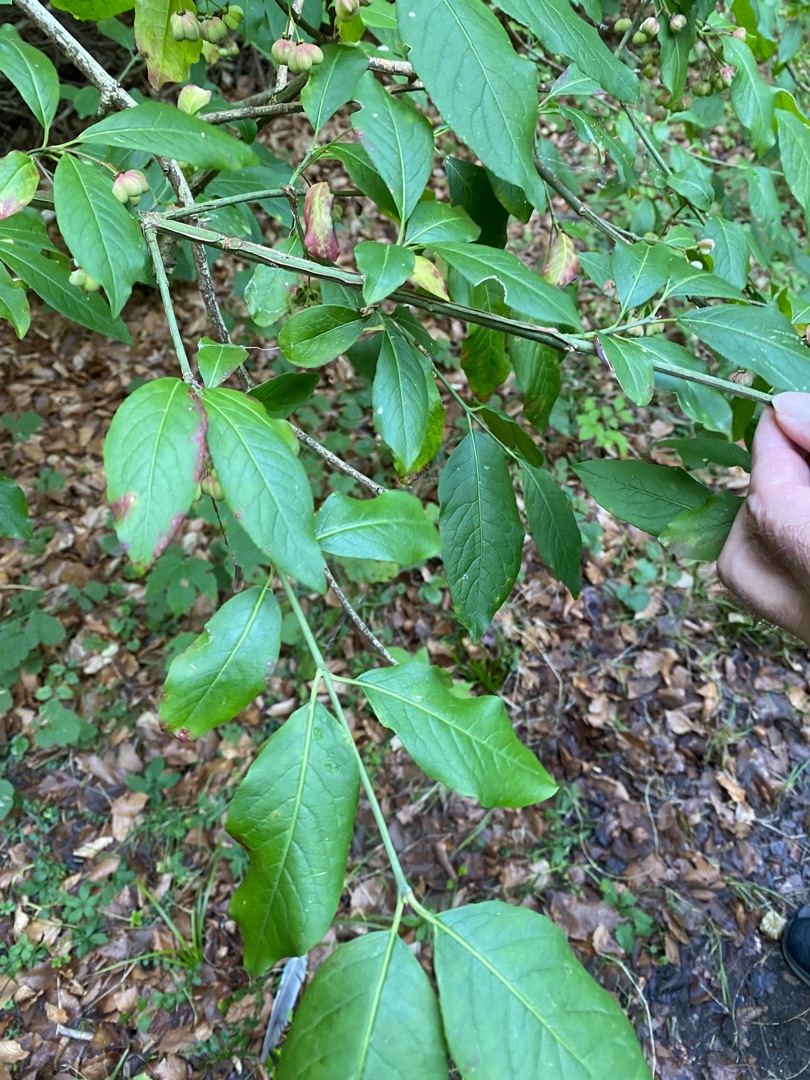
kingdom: Plantae
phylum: Tracheophyta
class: Magnoliopsida
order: Celastrales
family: Celastraceae
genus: Euonymus
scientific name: Euonymus europaeus
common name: Benved
